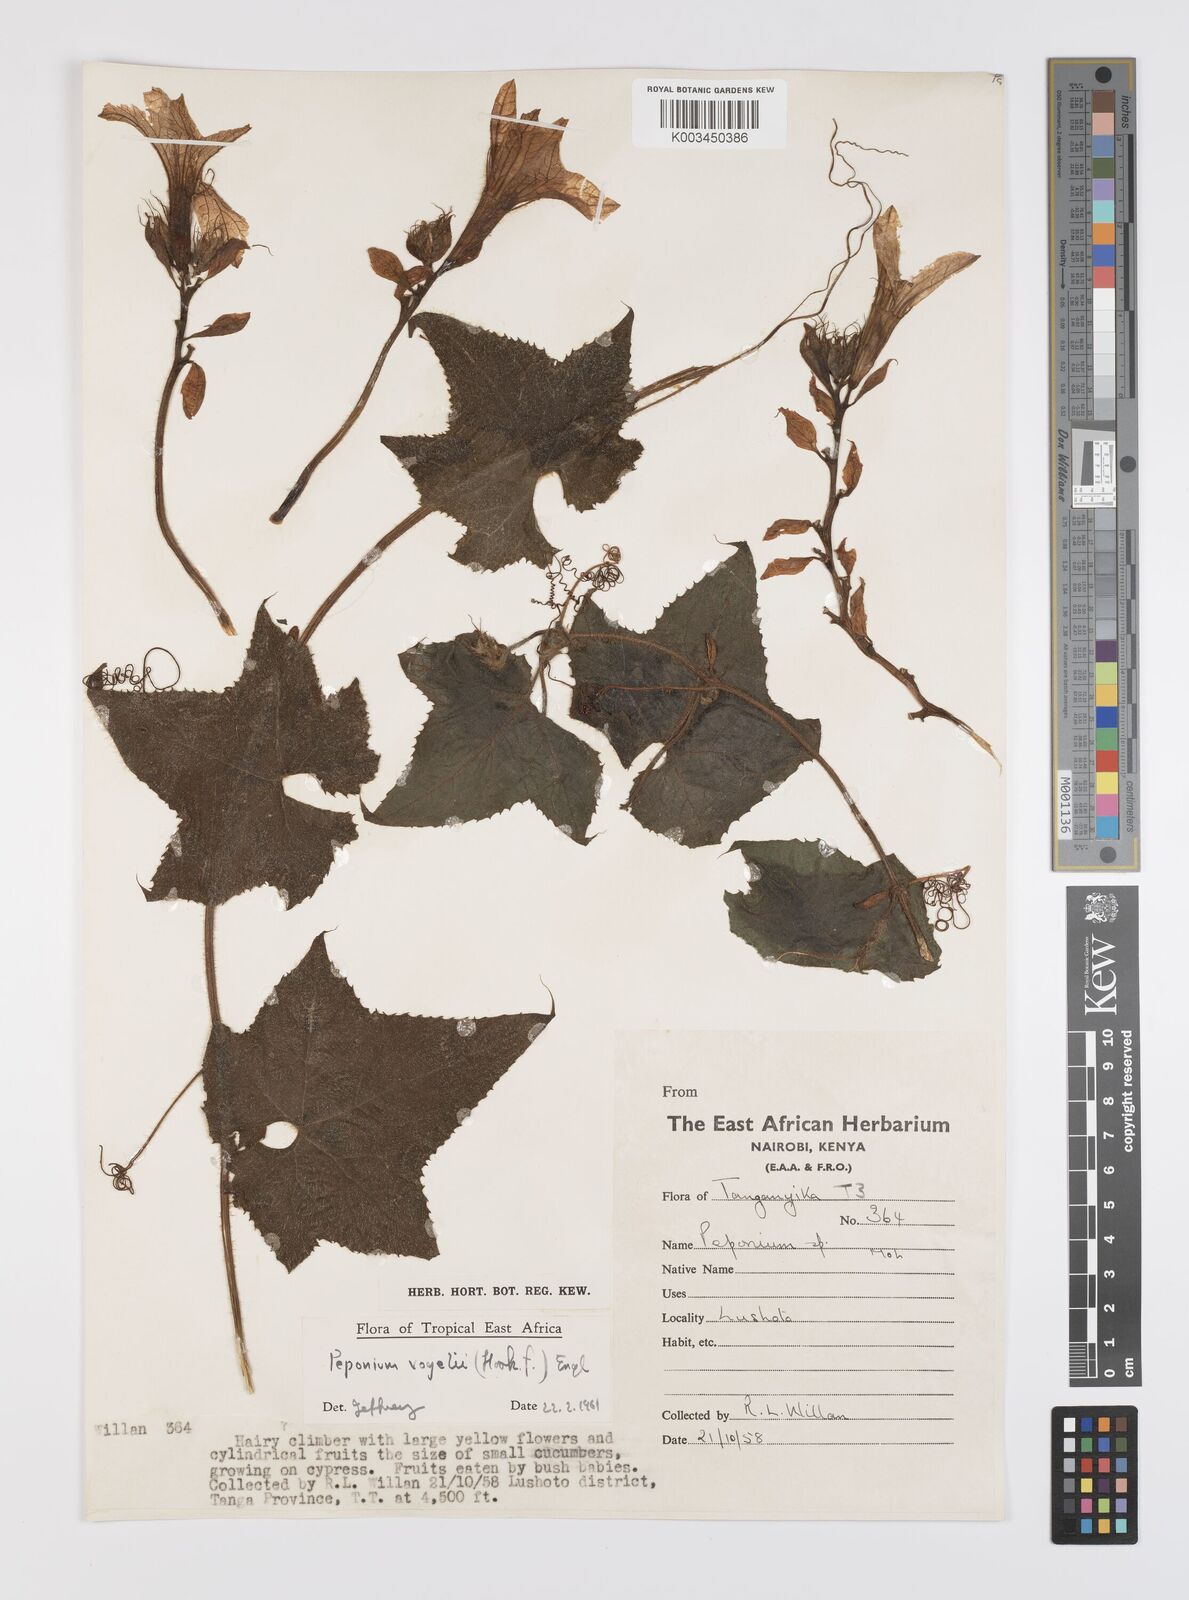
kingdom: Plantae
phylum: Tracheophyta
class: Magnoliopsida
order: Cucurbitales
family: Cucurbitaceae
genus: Peponium
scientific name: Peponium vogelii
